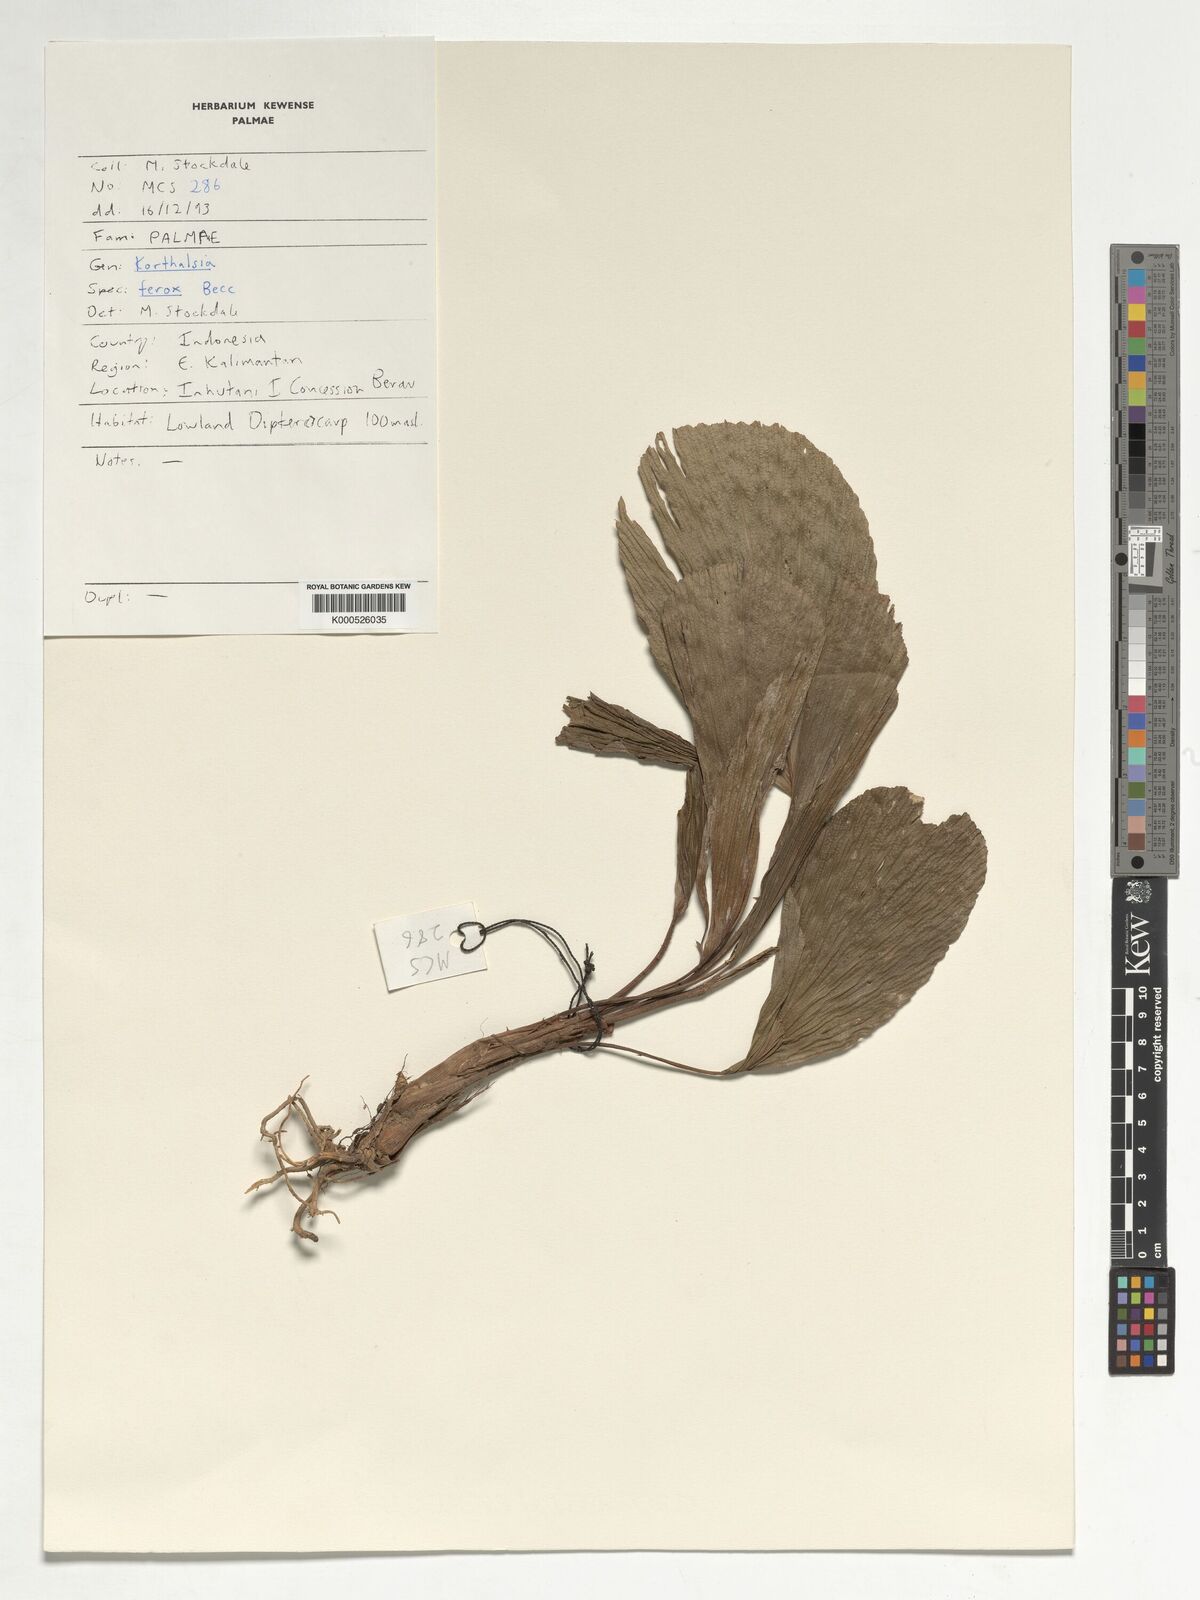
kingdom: Plantae
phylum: Tracheophyta
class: Liliopsida
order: Arecales
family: Arecaceae
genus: Korthalsia
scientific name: Korthalsia ferox
